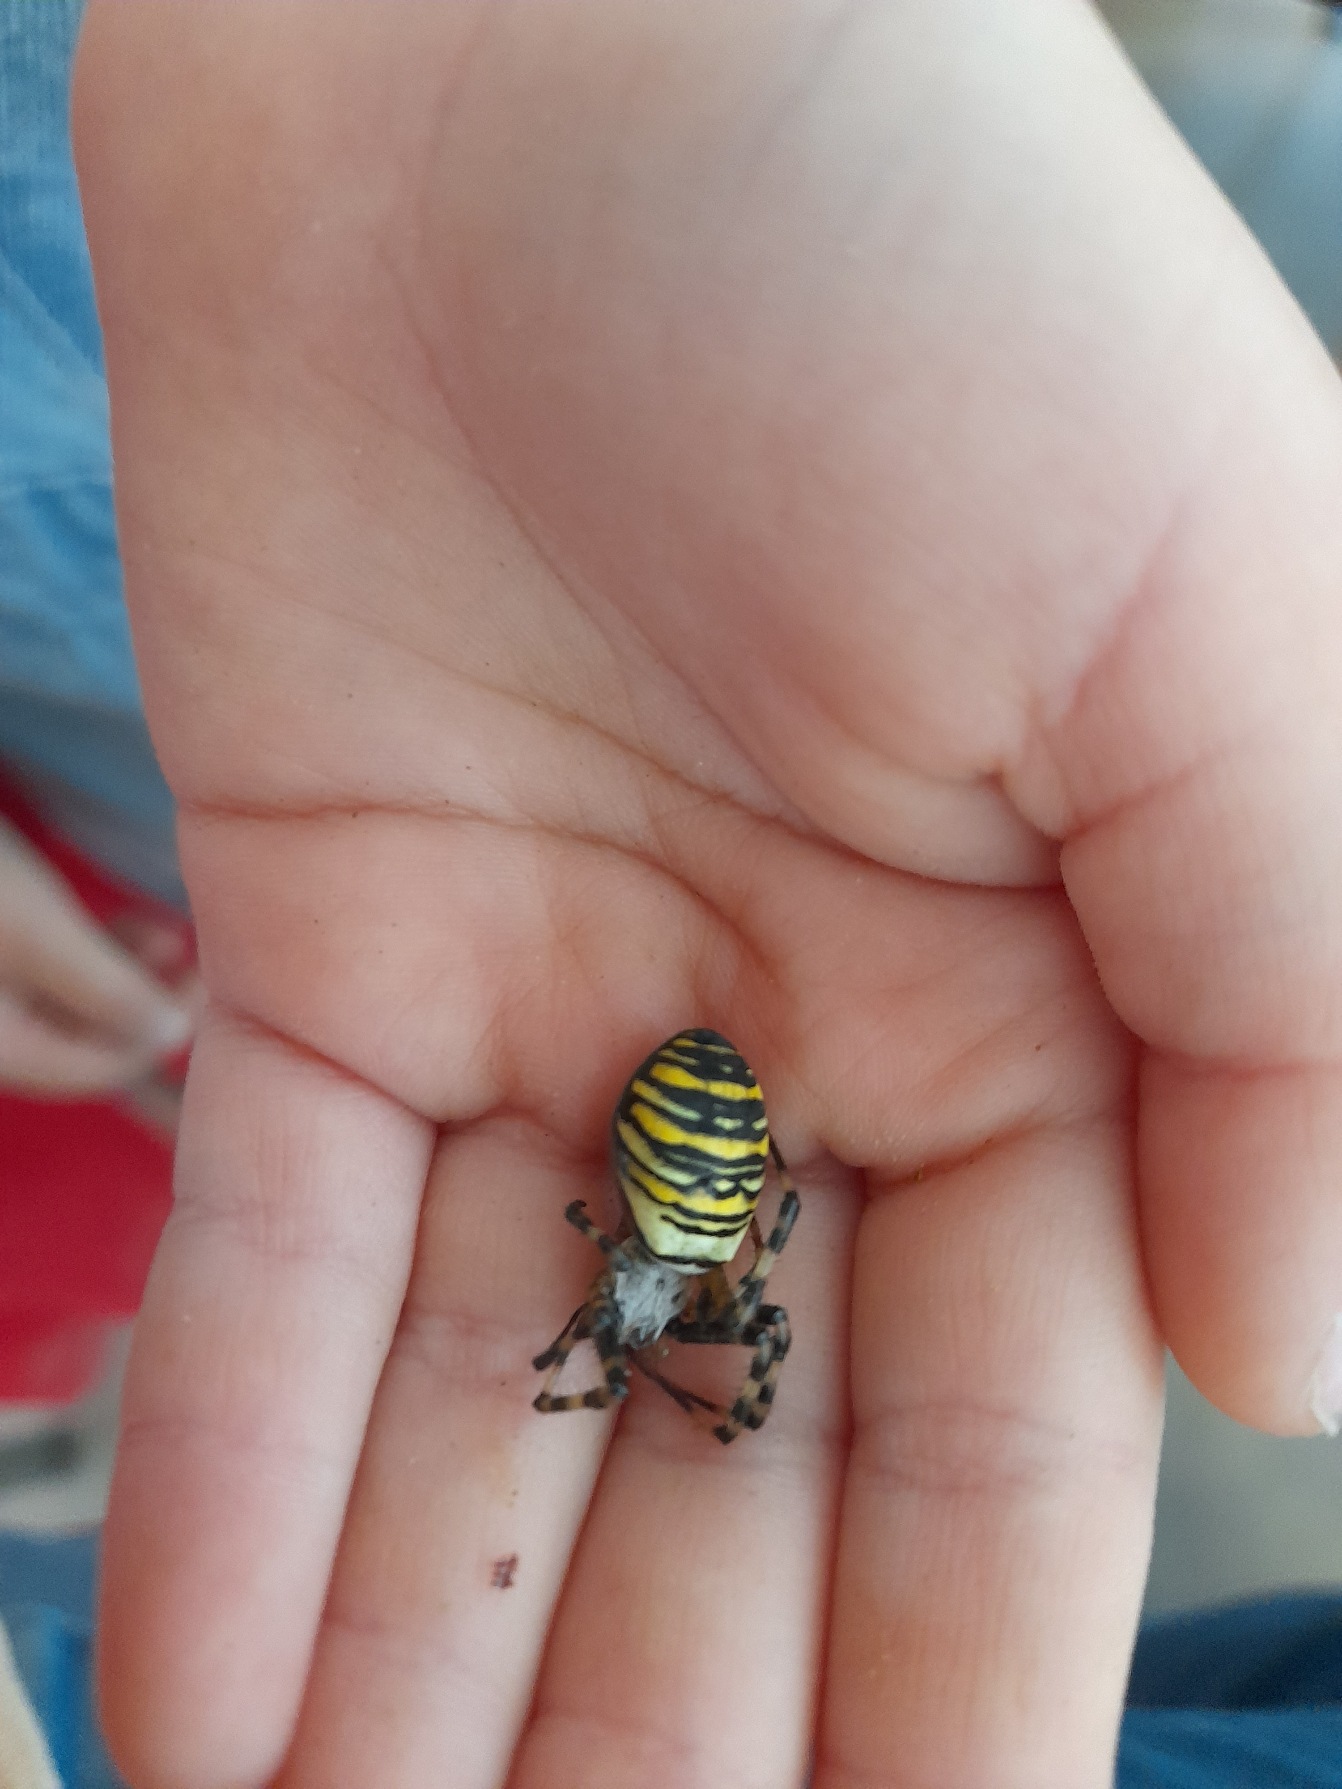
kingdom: Animalia
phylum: Arthropoda
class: Arachnida
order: Araneae
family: Araneidae
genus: Argiope
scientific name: Argiope bruennichi
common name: Hvepseedderkop
